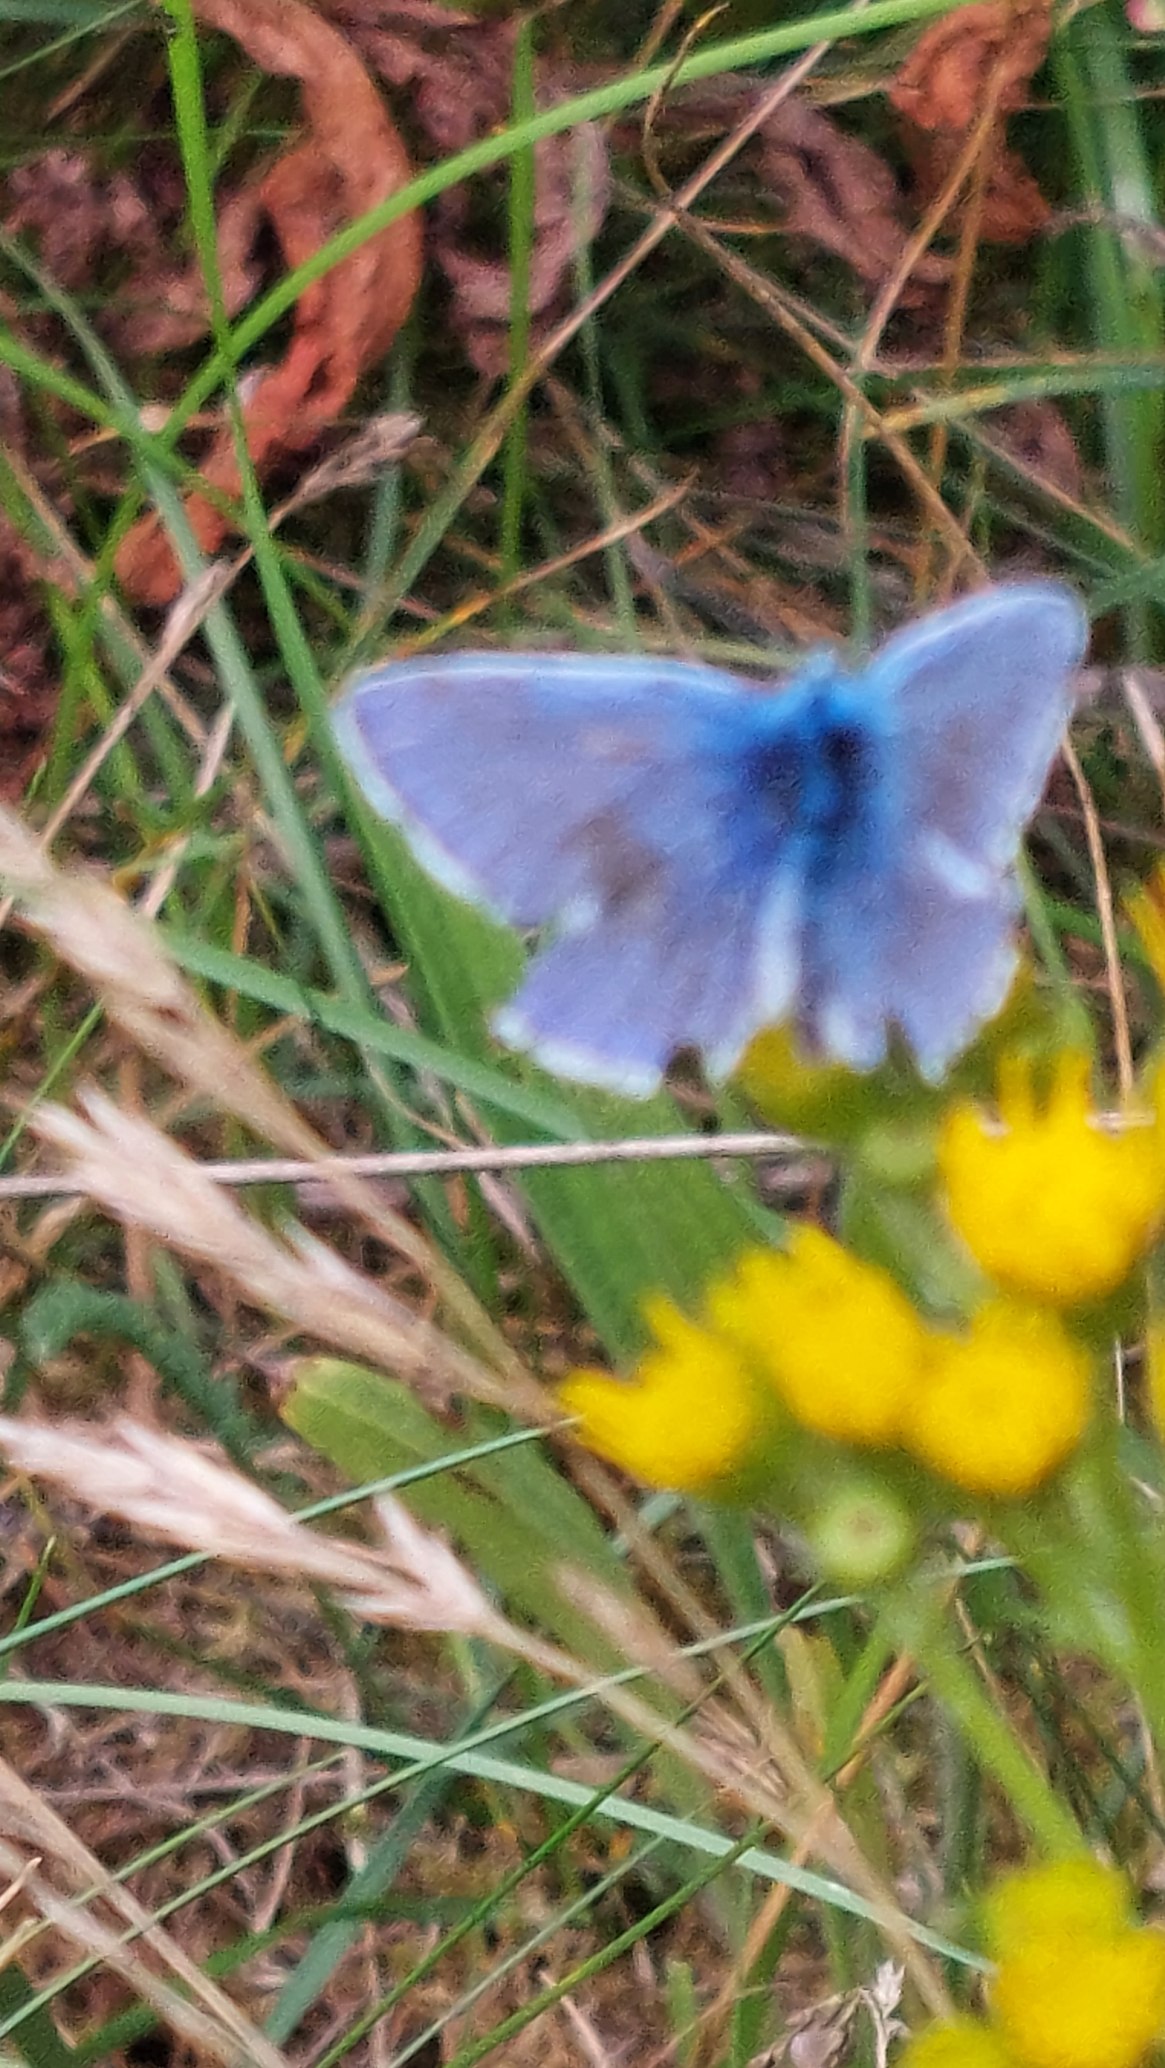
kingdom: Animalia
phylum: Arthropoda
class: Insecta
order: Lepidoptera
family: Lycaenidae
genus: Polyommatus
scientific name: Polyommatus icarus
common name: Almindelig blåfugl
